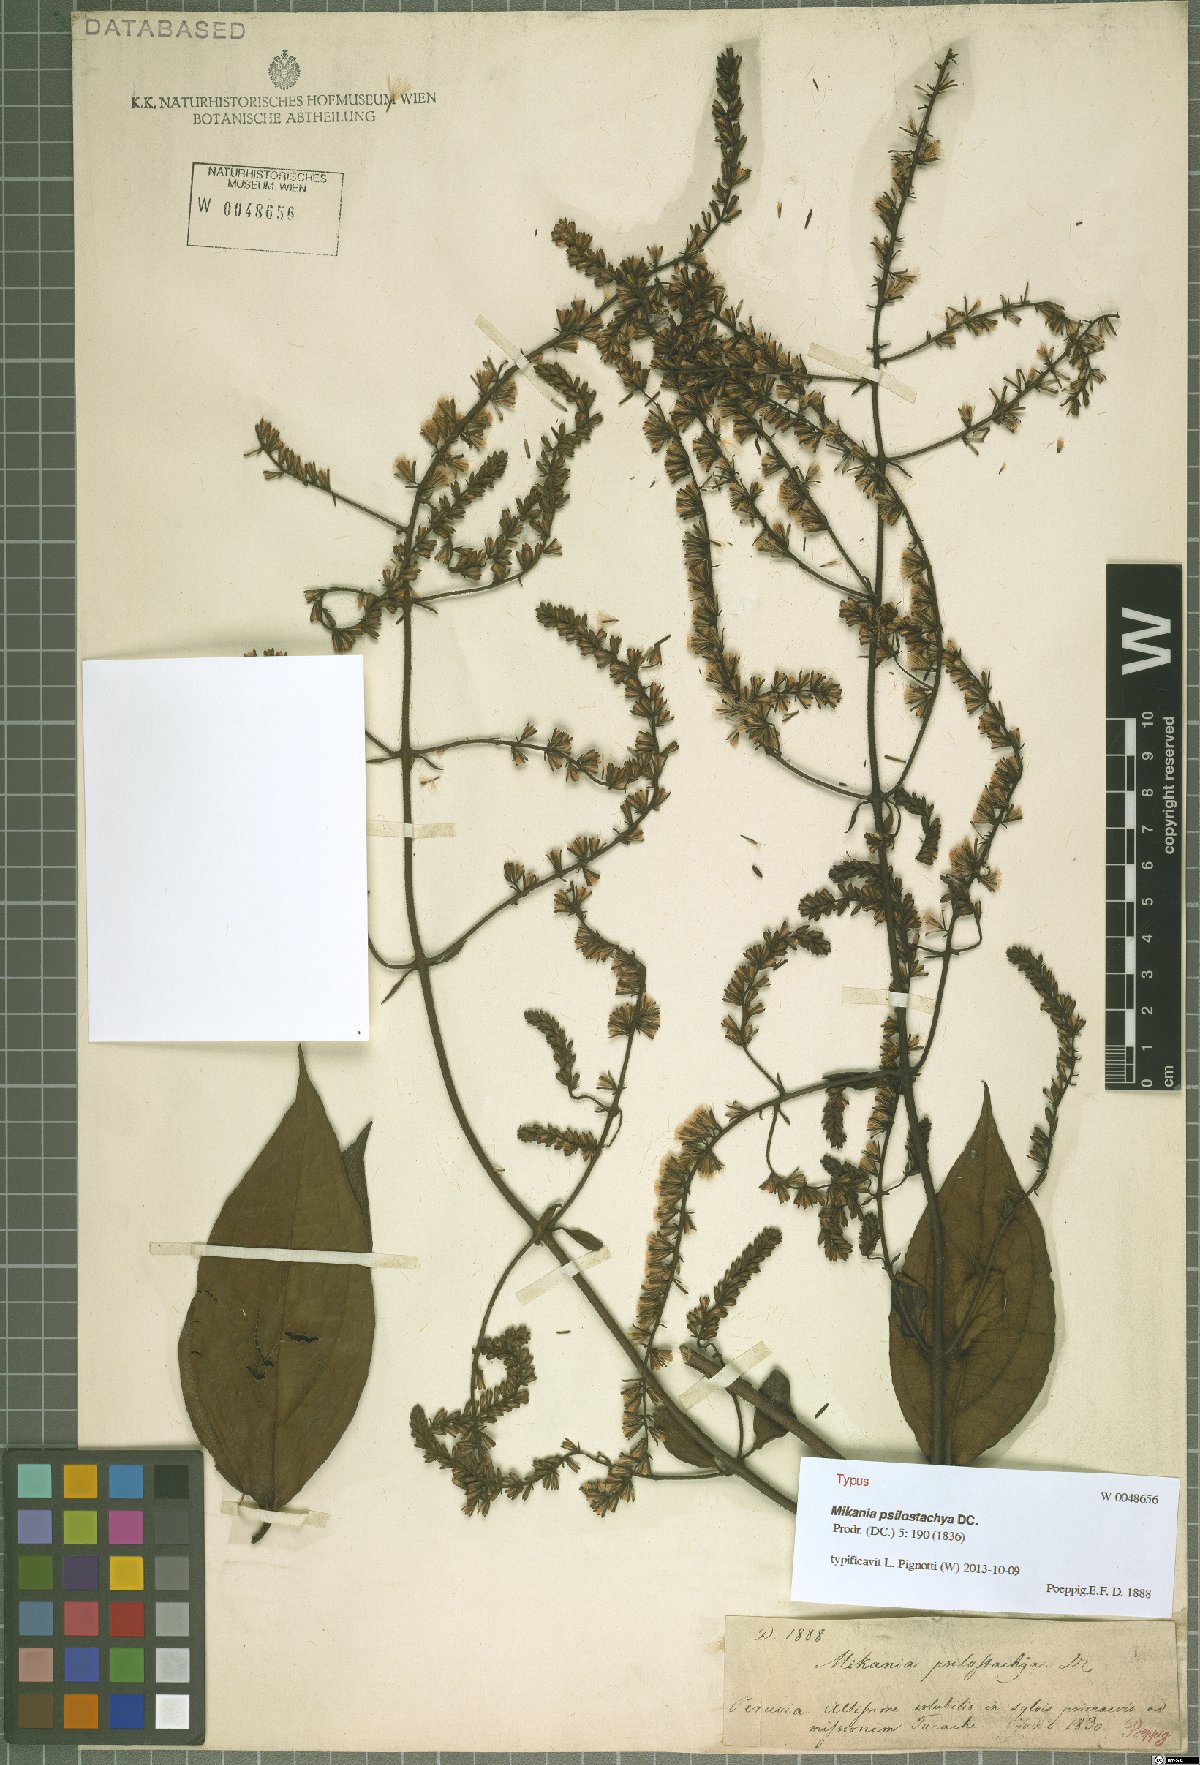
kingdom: Plantae
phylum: Tracheophyta
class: Magnoliopsida
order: Asterales
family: Asteraceae
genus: Mikania
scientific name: Mikania psilostachya
